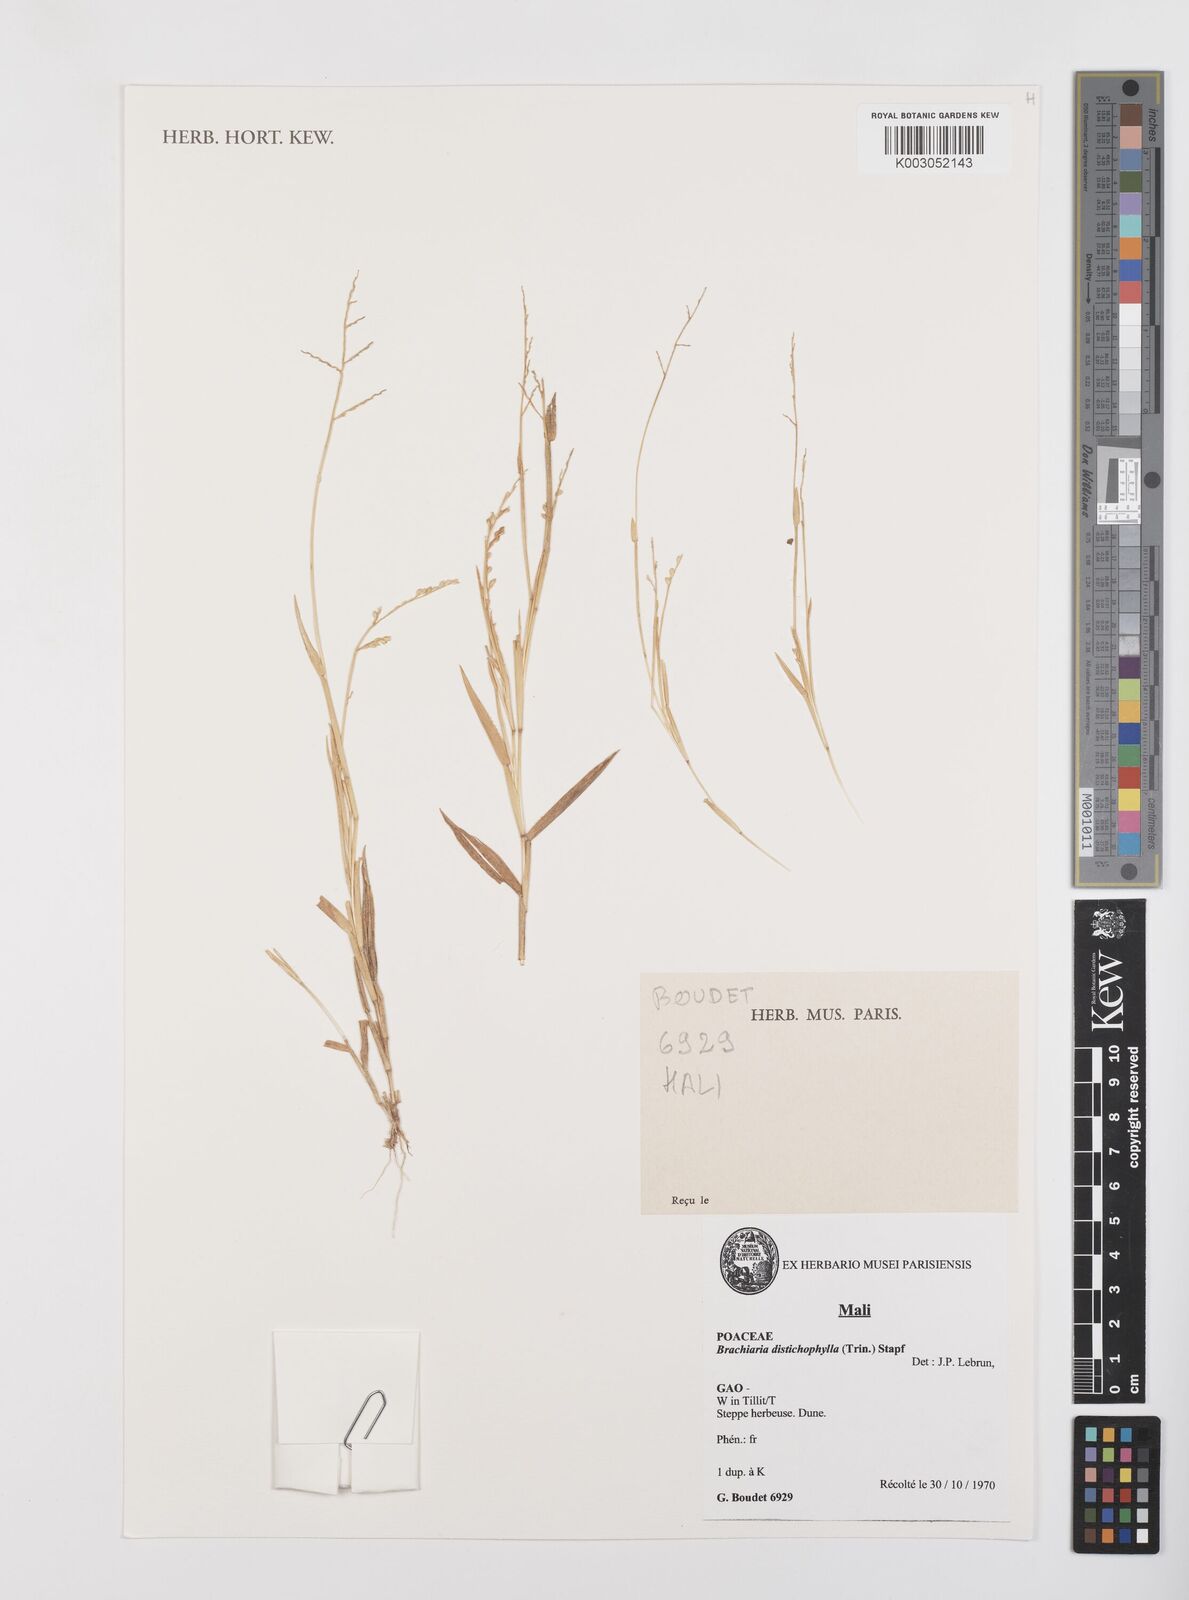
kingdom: Plantae
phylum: Tracheophyta
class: Liliopsida
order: Poales
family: Poaceae
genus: Urochloa
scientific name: Urochloa villosa
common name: Hairy signalgrass
